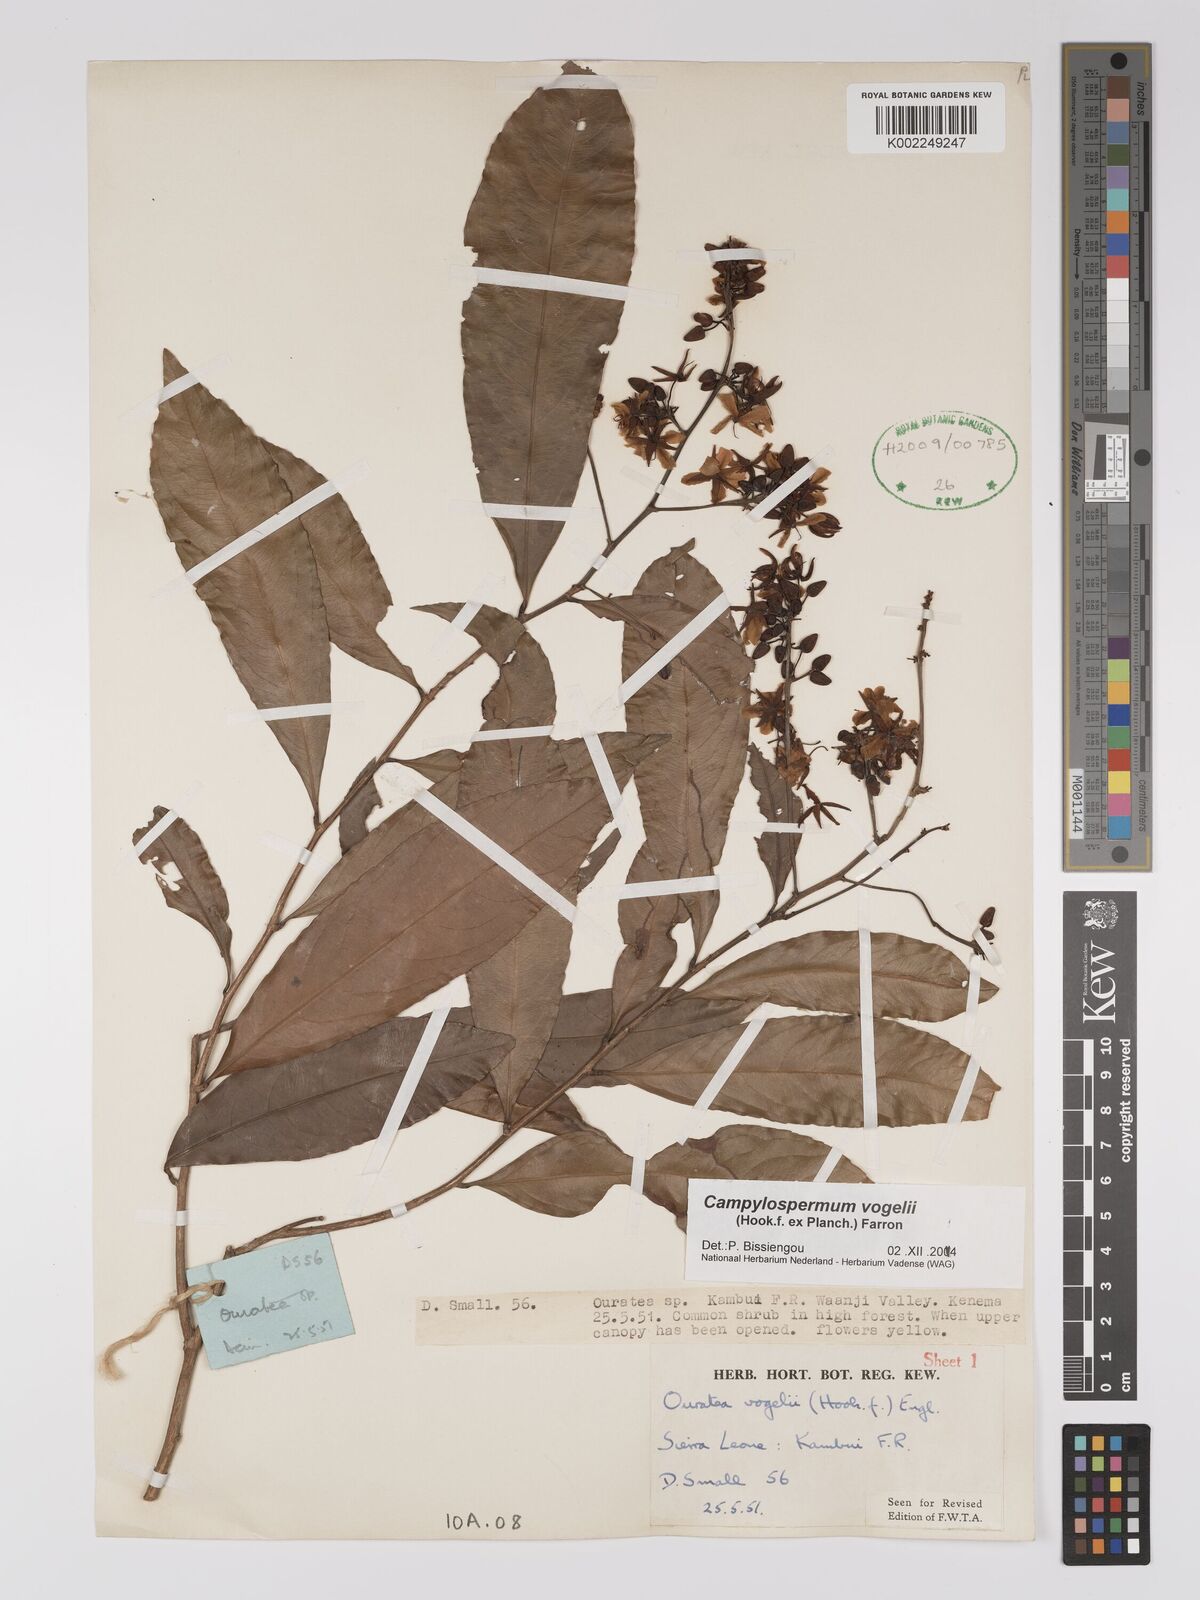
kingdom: Plantae
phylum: Tracheophyta
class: Magnoliopsida
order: Malpighiales
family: Ochnaceae
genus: Campylospermum
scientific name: Campylospermum vogelii
